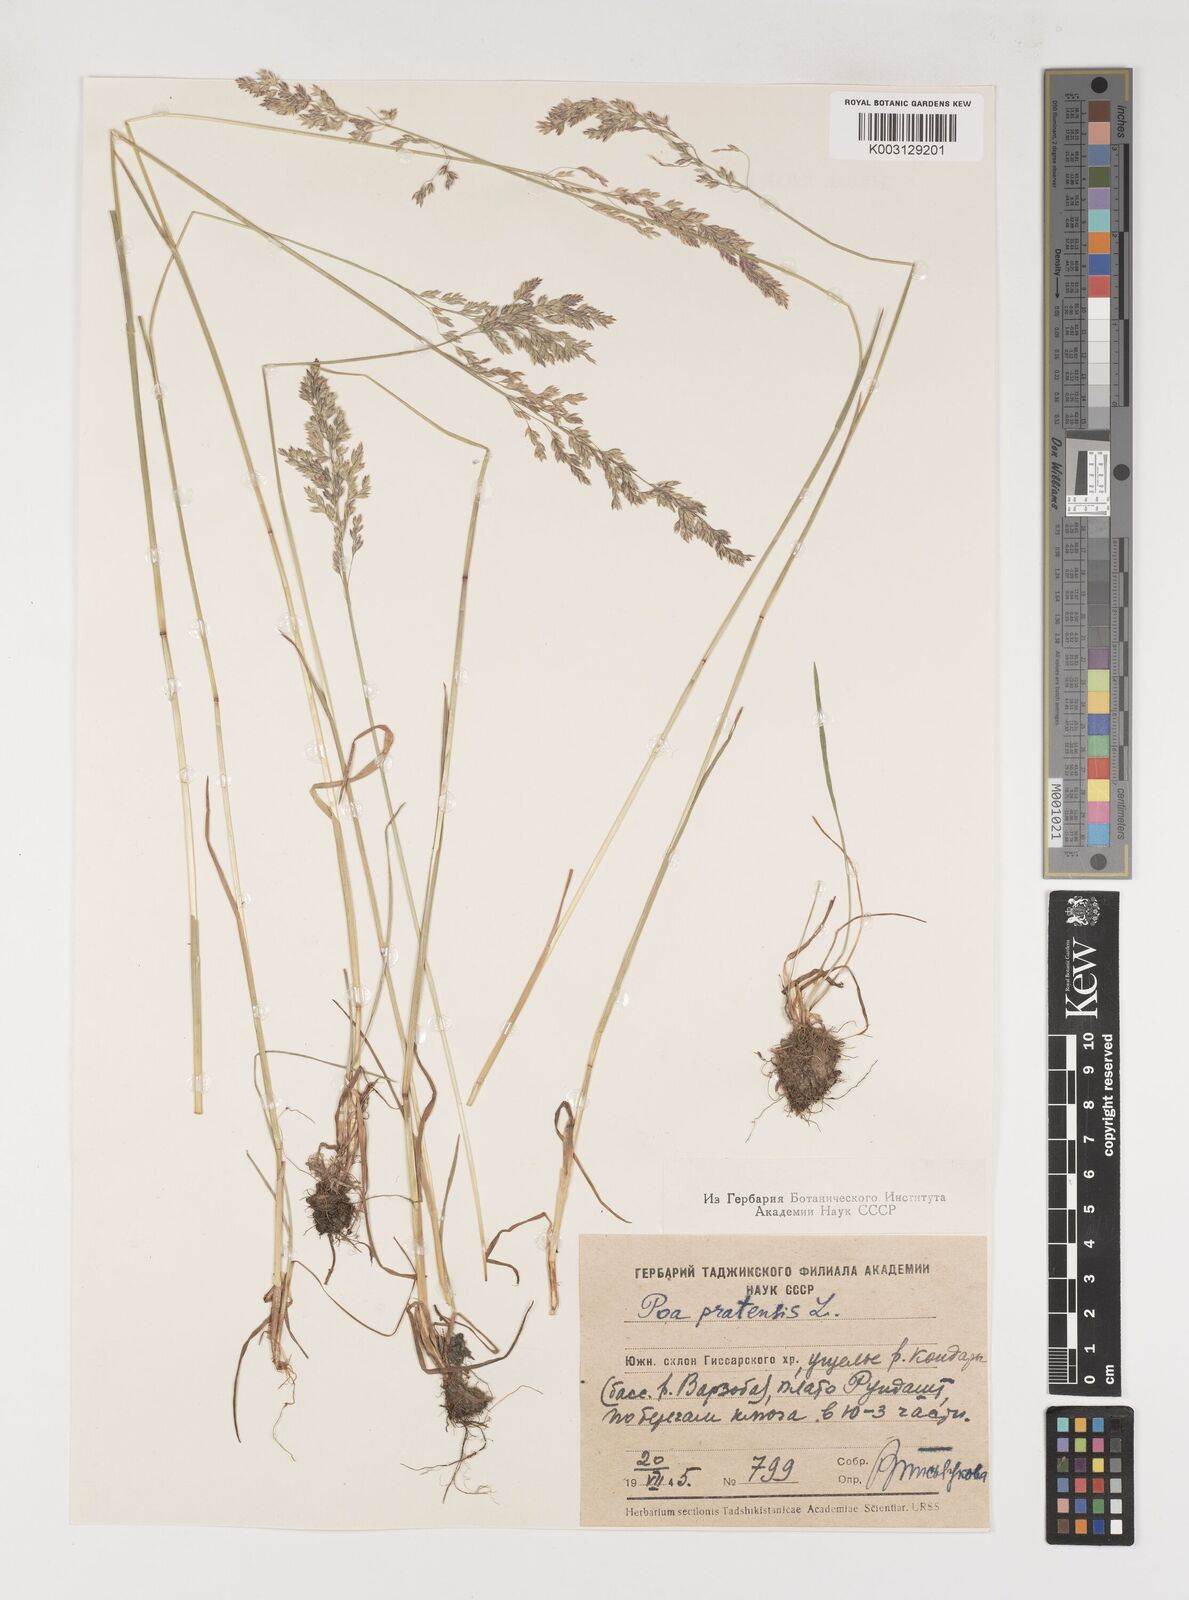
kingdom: Plantae
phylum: Tracheophyta
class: Liliopsida
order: Poales
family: Poaceae
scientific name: Poaceae
